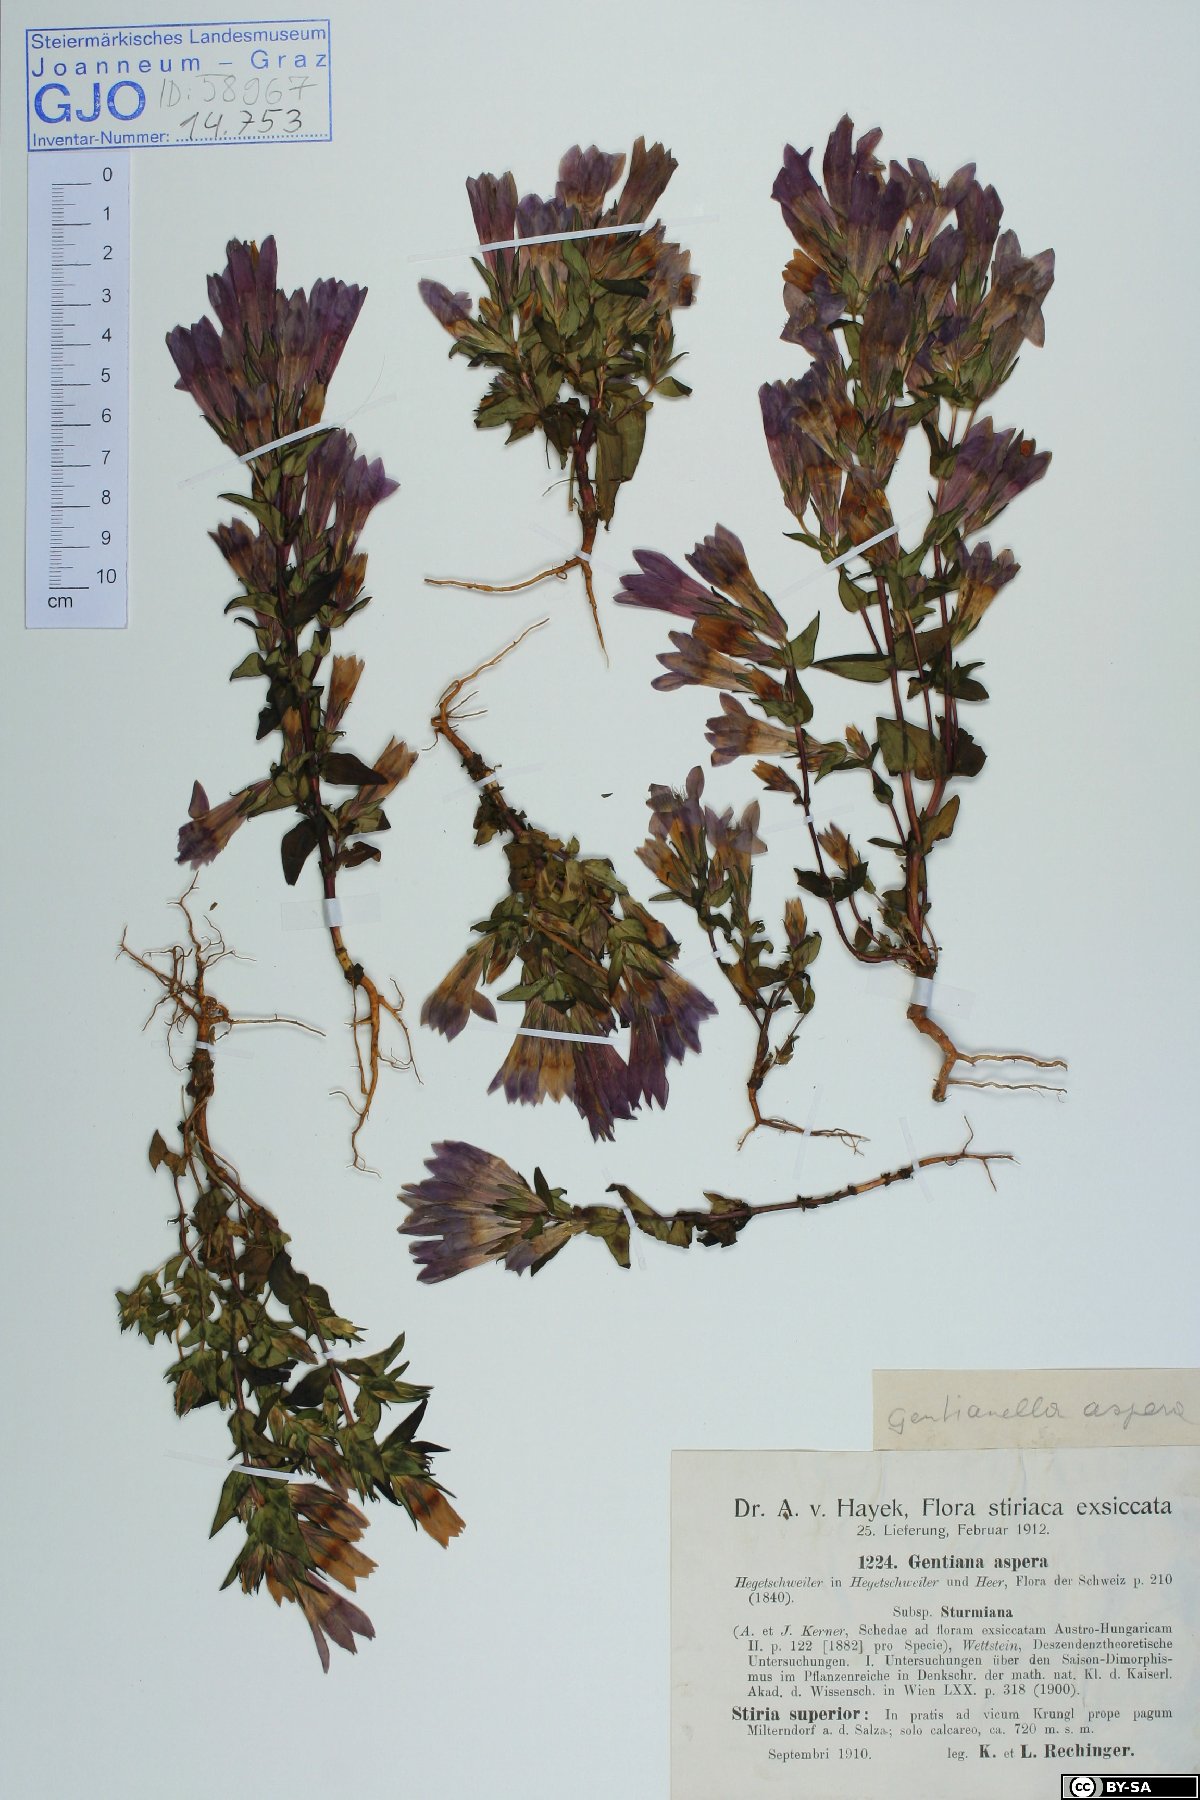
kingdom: Plantae
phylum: Tracheophyta
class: Magnoliopsida
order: Gentianales
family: Gentianaceae
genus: Gentianella
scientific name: Gentianella obtusifolia
